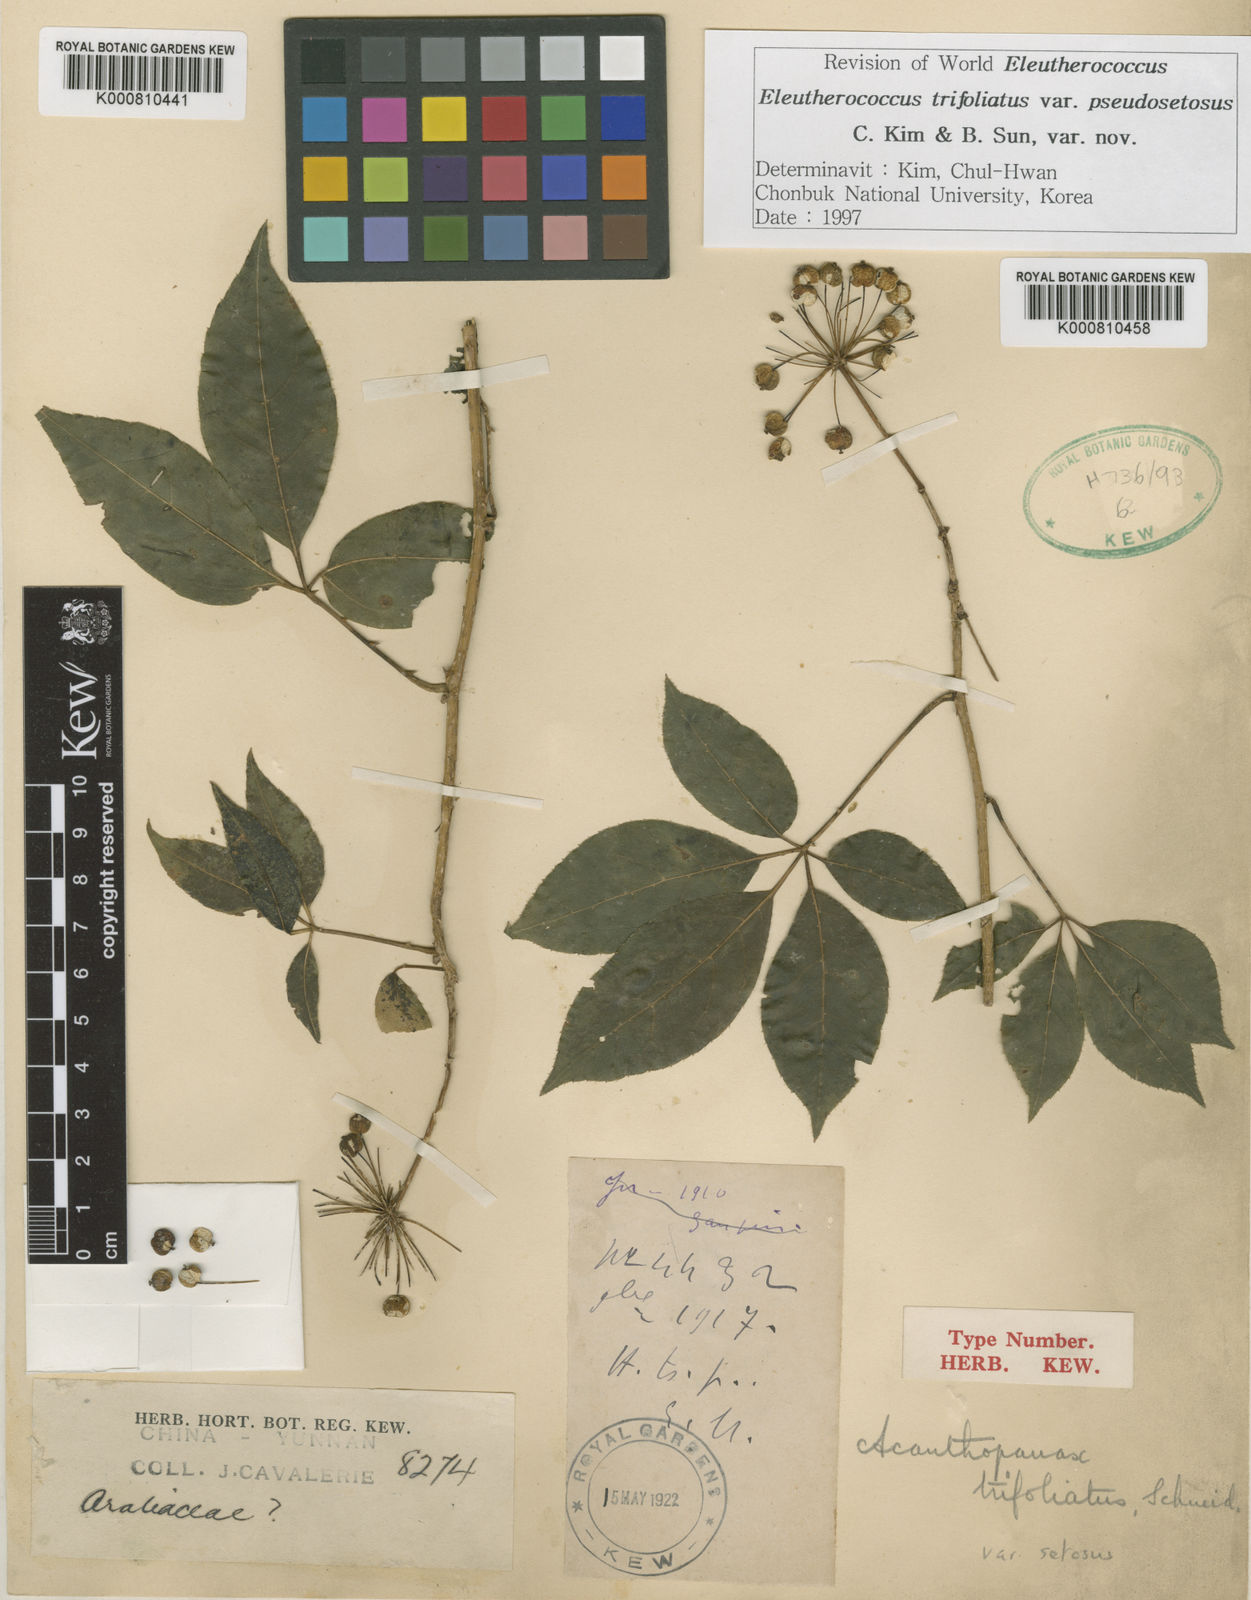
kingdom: Plantae
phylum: Tracheophyta
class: Magnoliopsida
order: Apiales
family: Araliaceae
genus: Eleutherococcus
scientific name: Eleutherococcus trifoliatus
